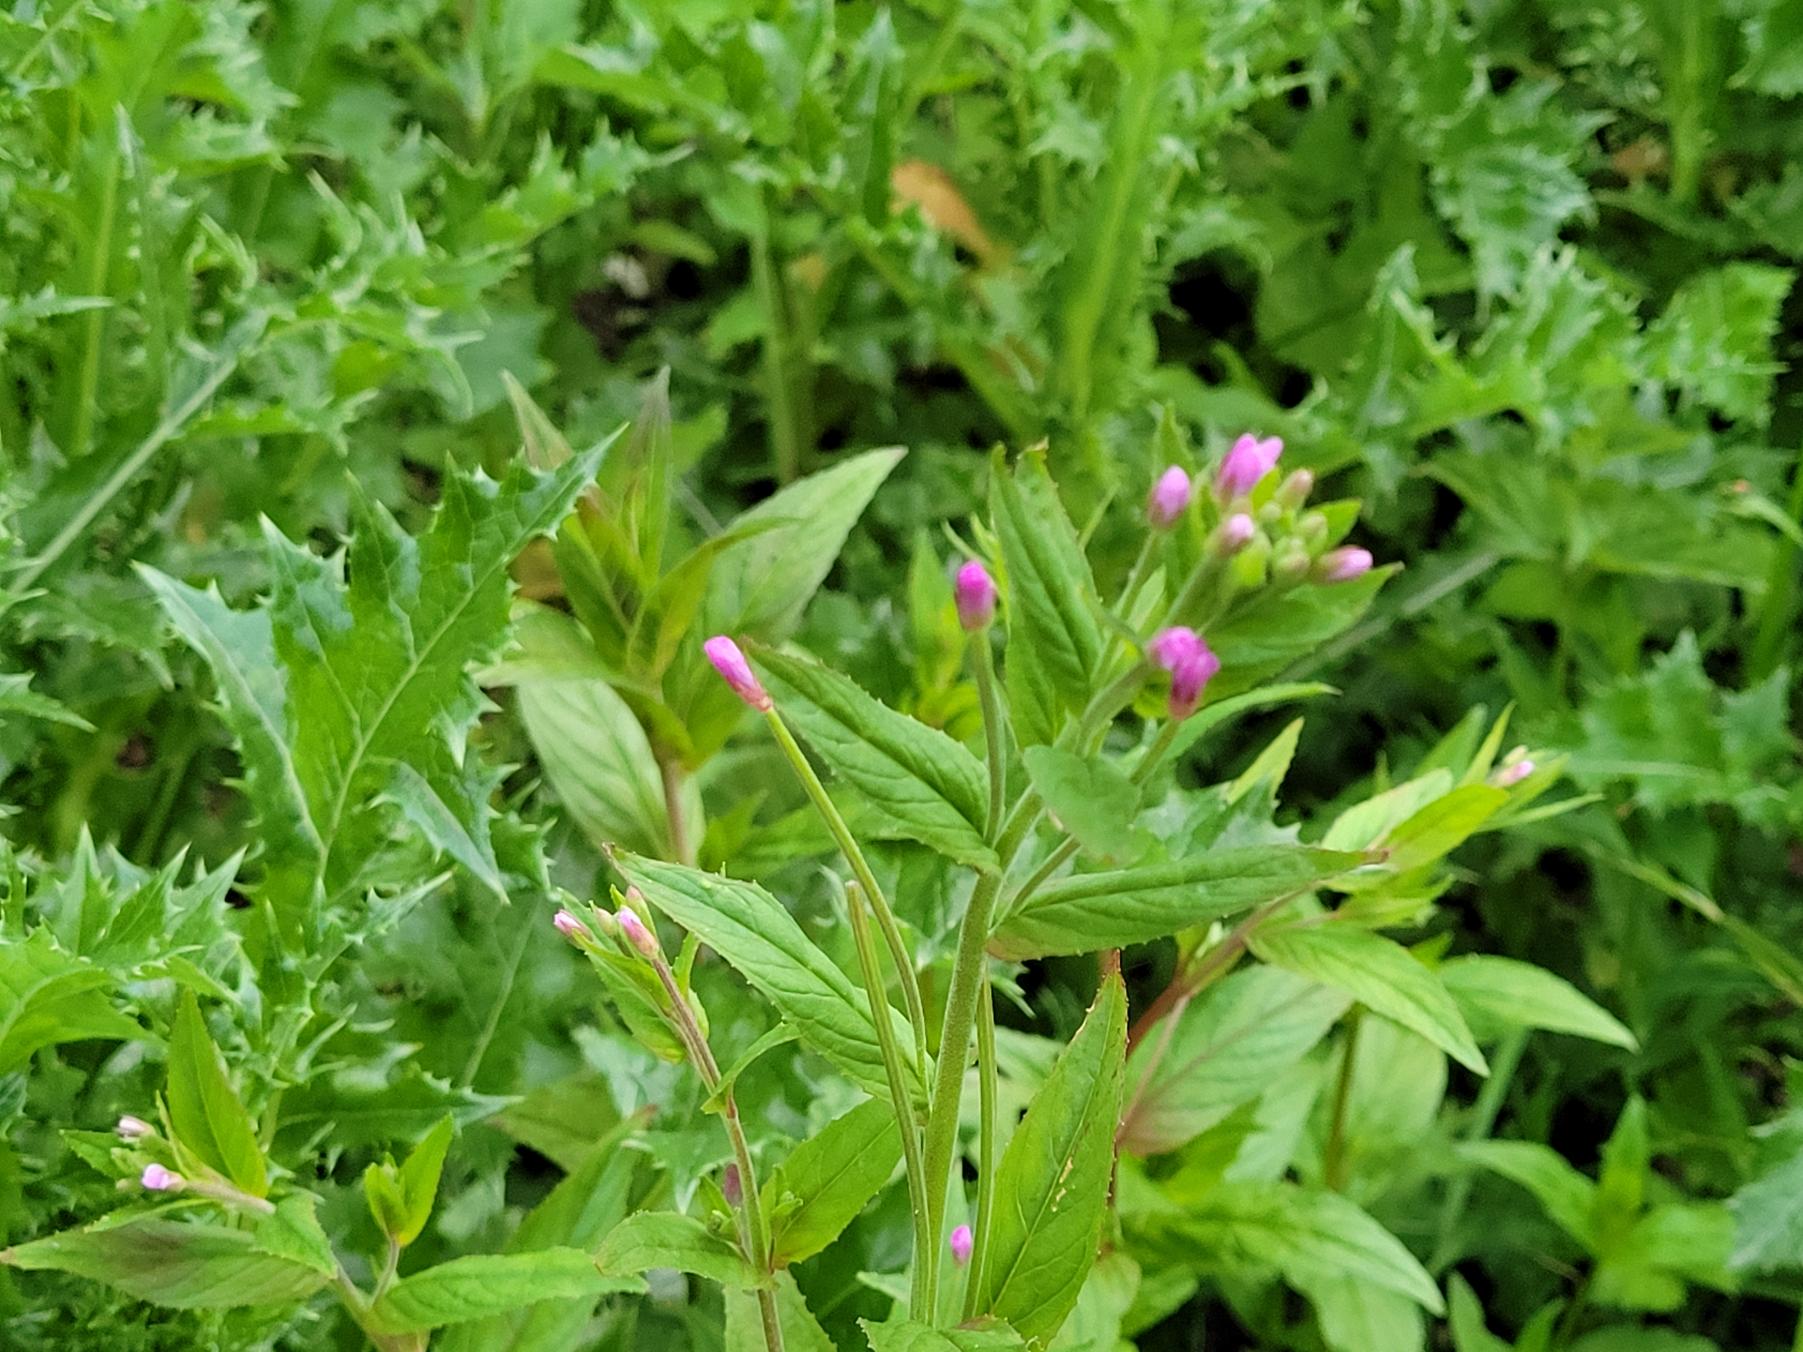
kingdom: Plantae
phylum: Tracheophyta
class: Magnoliopsida
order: Myrtales
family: Onagraceae
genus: Epilobium
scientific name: Epilobium ciliatum
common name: Alaska-dueurt
